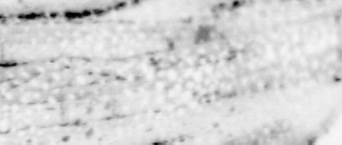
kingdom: Animalia
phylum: Chordata
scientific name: Chordata
